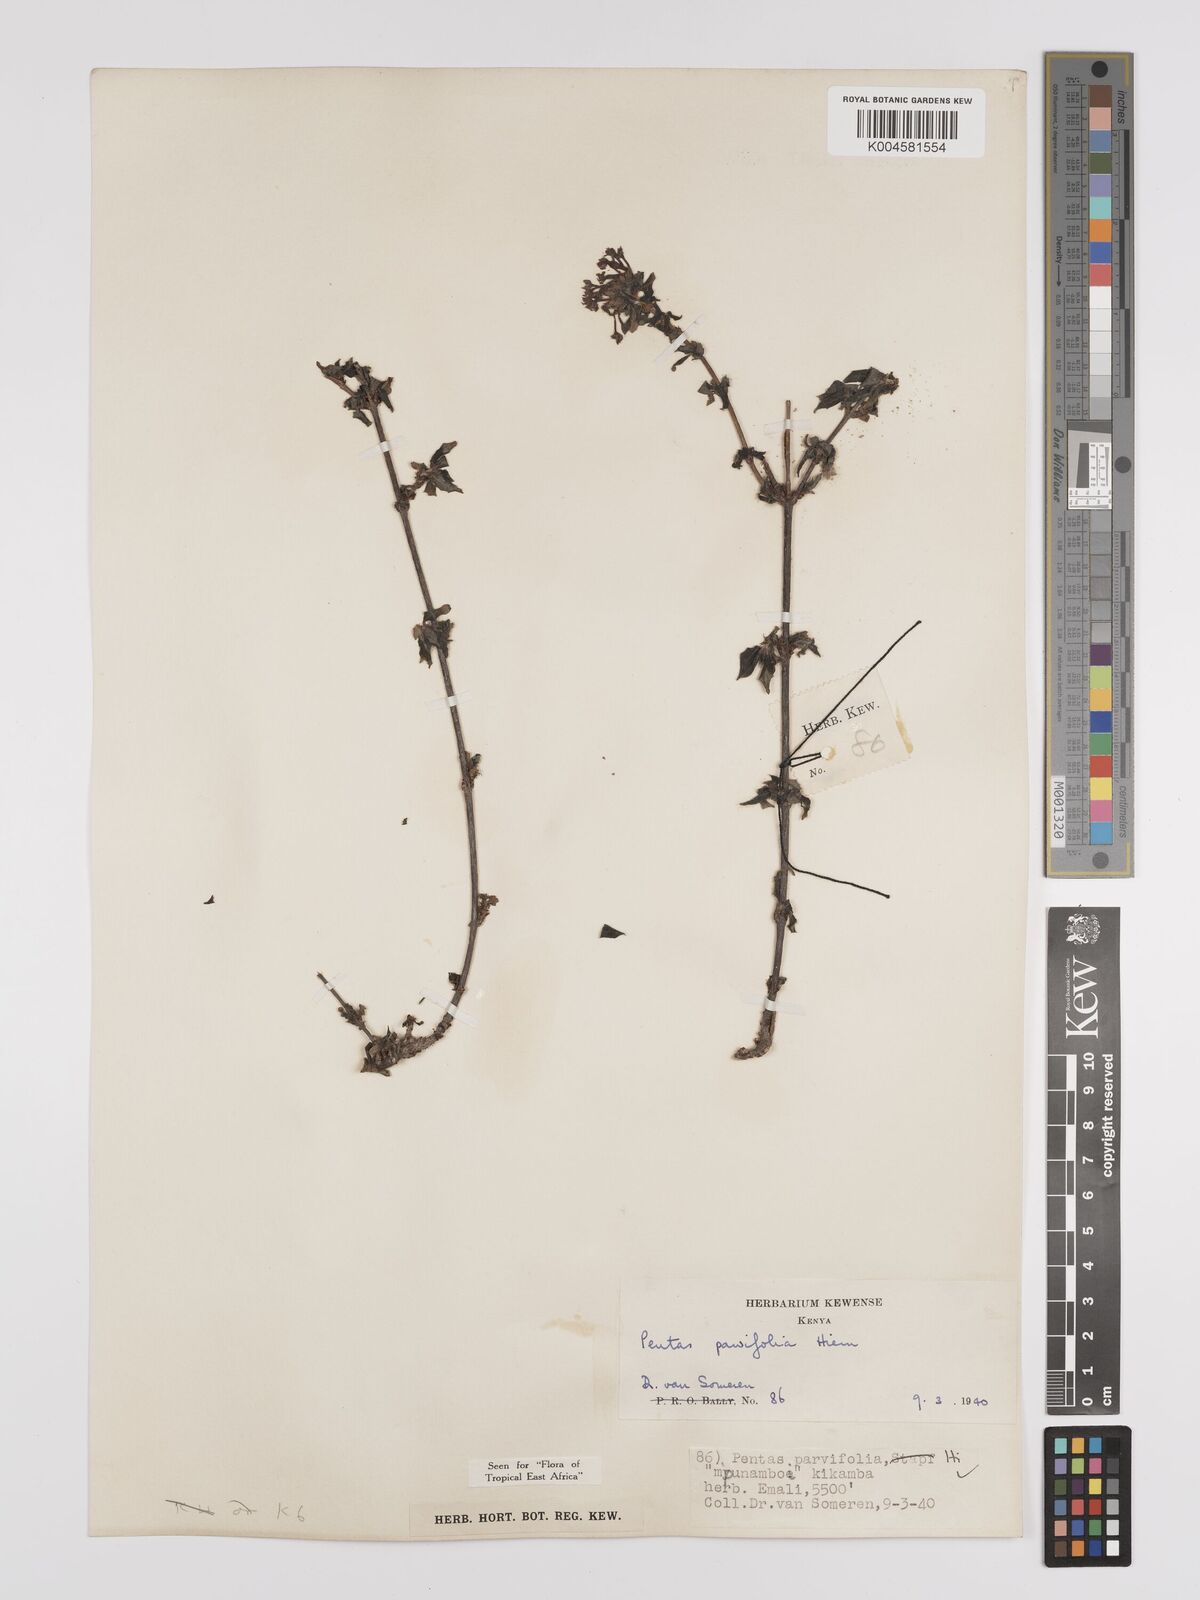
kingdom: Plantae
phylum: Tracheophyta
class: Magnoliopsida
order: Gentianales
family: Rubiaceae
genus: Rhodopentas
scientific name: Rhodopentas parvifolia
